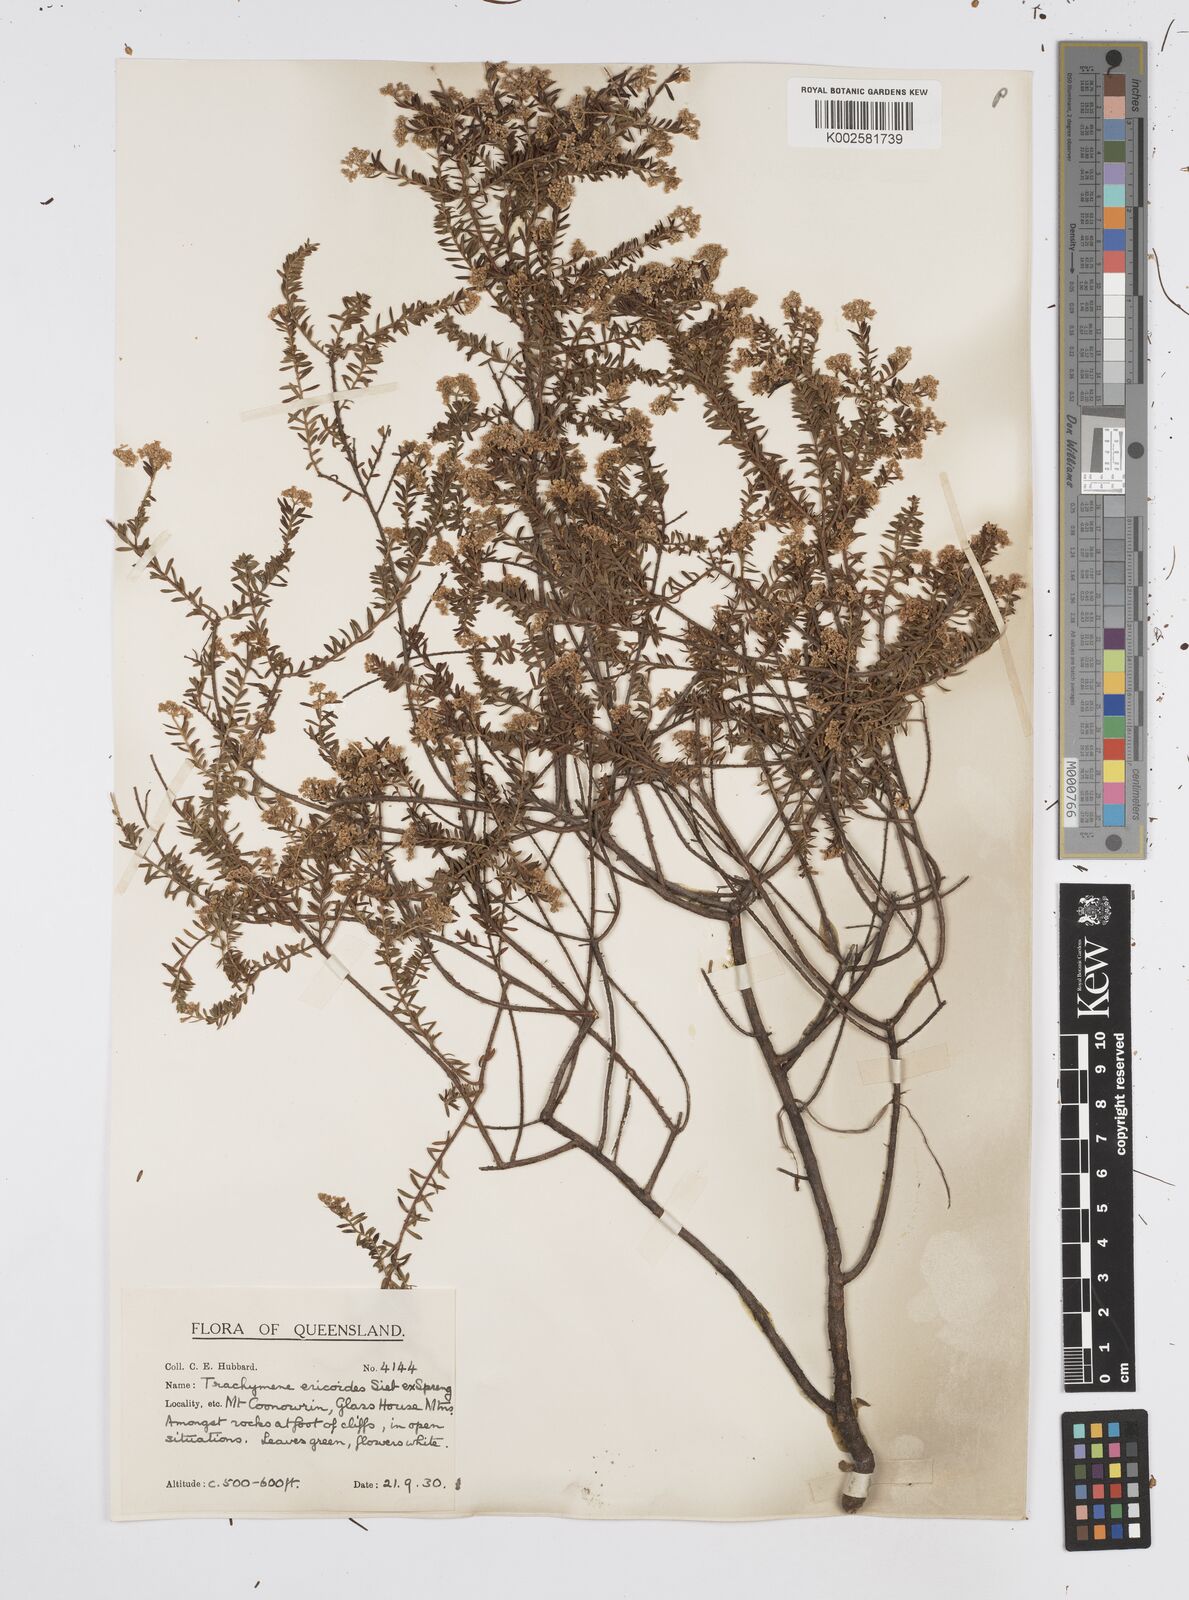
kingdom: Plantae
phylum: Tracheophyta
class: Magnoliopsida
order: Apiales
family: Apiaceae
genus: Platysace
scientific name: Platysace ericoides
